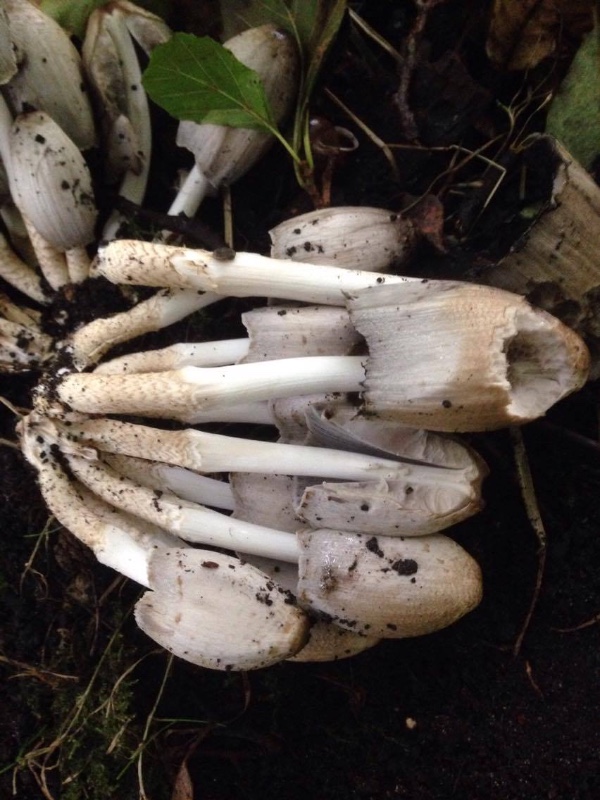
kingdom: Fungi
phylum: Basidiomycota
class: Agaricomycetes
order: Agaricales
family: Psathyrellaceae
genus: Coprinopsis
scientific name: Coprinopsis atramentaria
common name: almindelig blækhat
